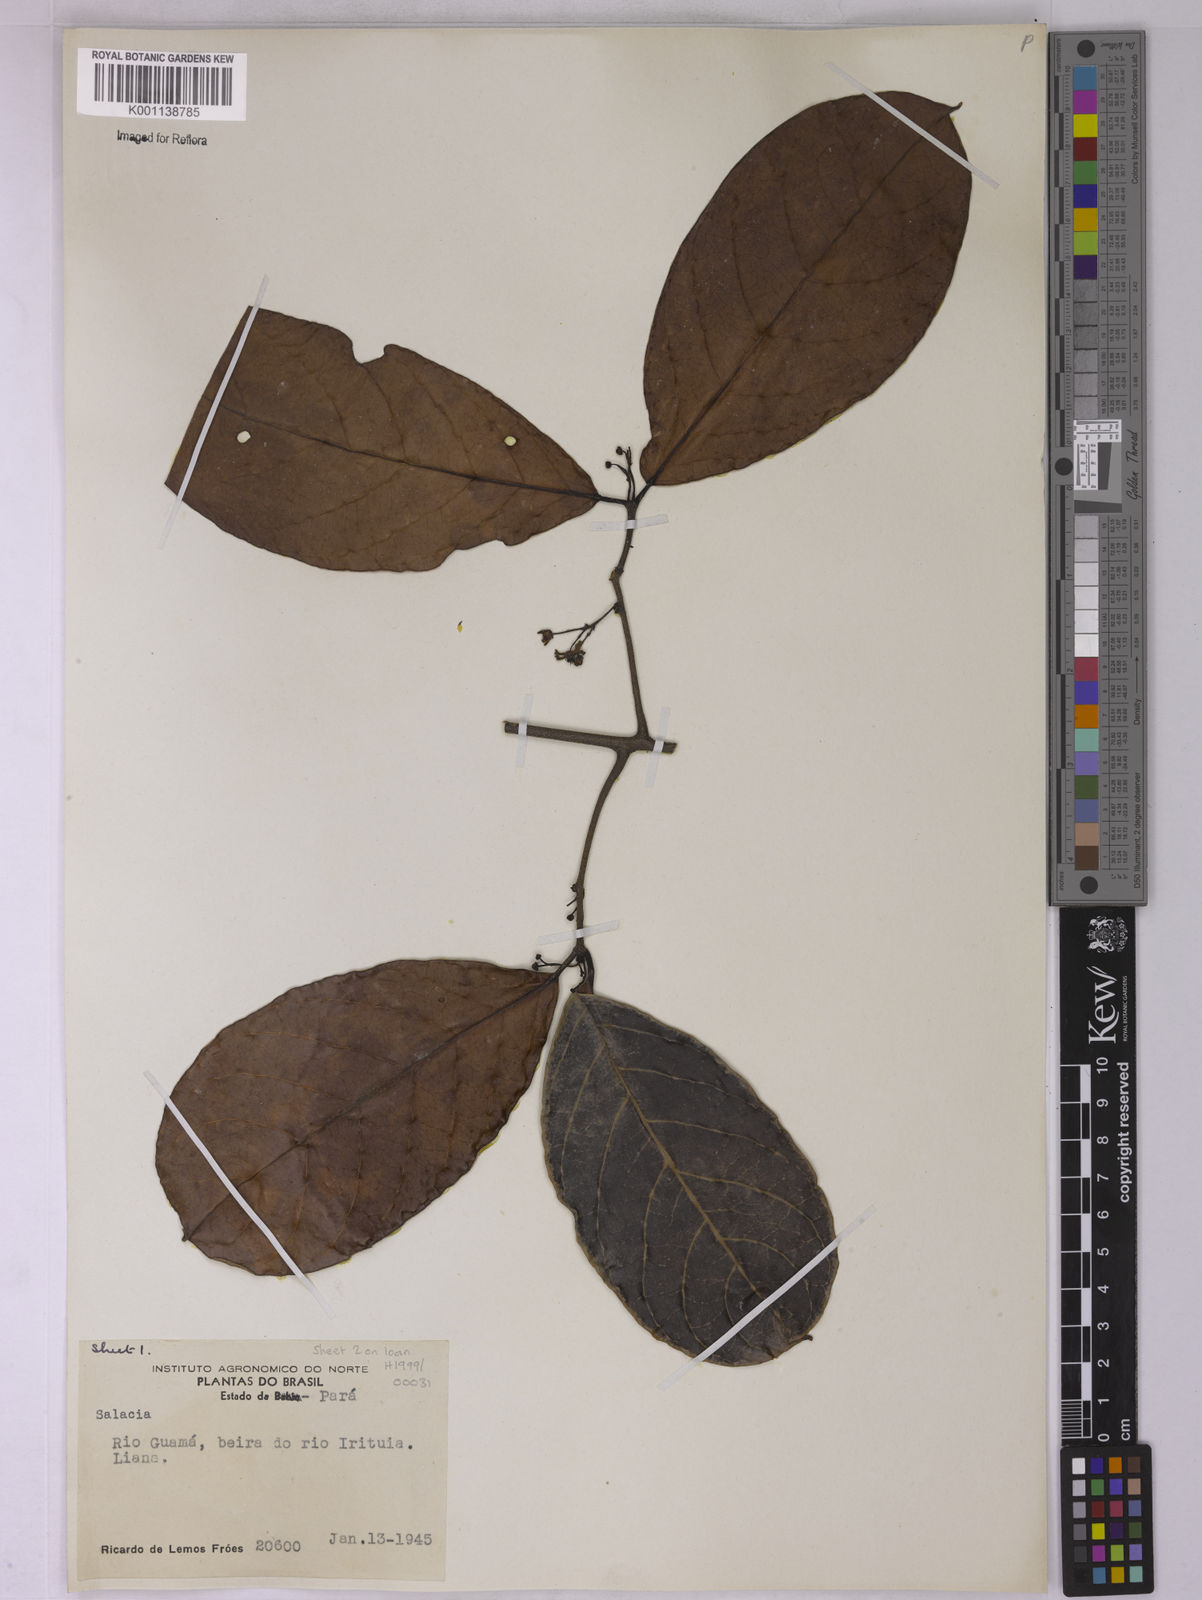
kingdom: Plantae
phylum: Tracheophyta
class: Magnoliopsida
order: Celastrales
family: Celastraceae
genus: Salacia
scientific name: Salacia multiflora
